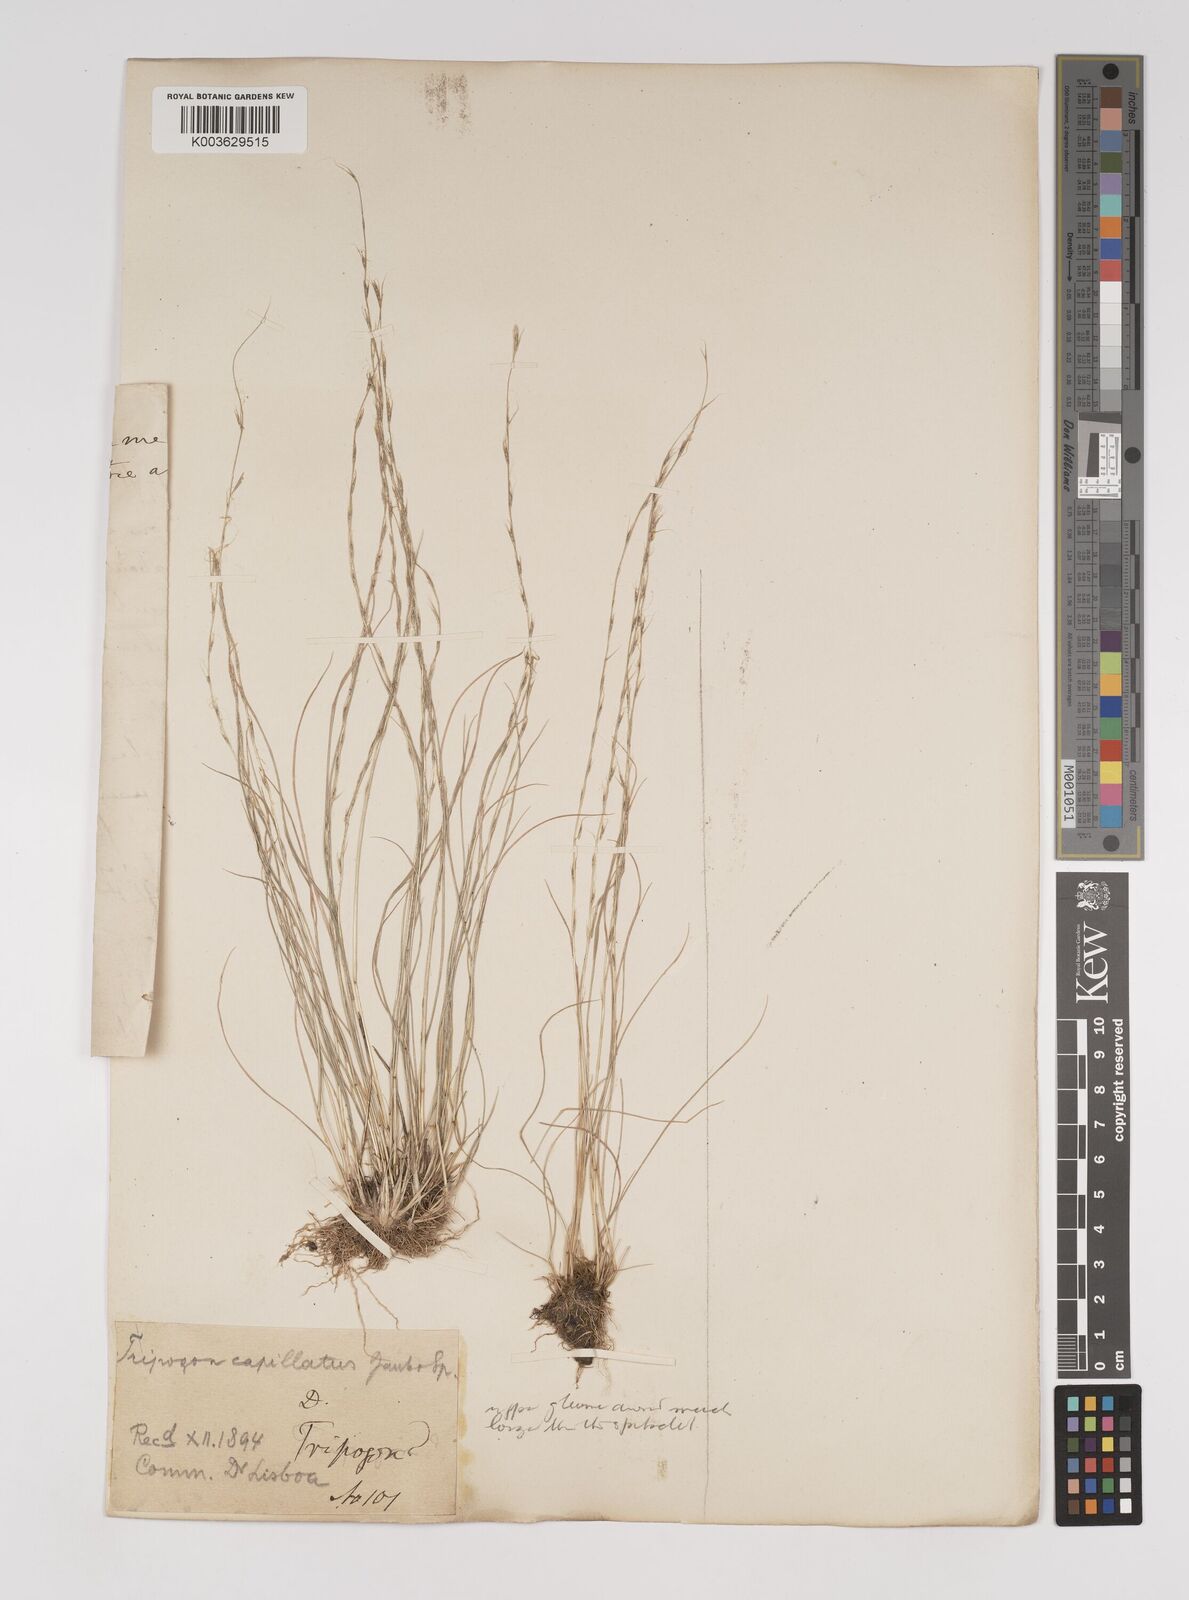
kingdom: Plantae
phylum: Tracheophyta
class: Liliopsida
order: Poales
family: Poaceae
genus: Tripogon
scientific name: Tripogon capillatus
